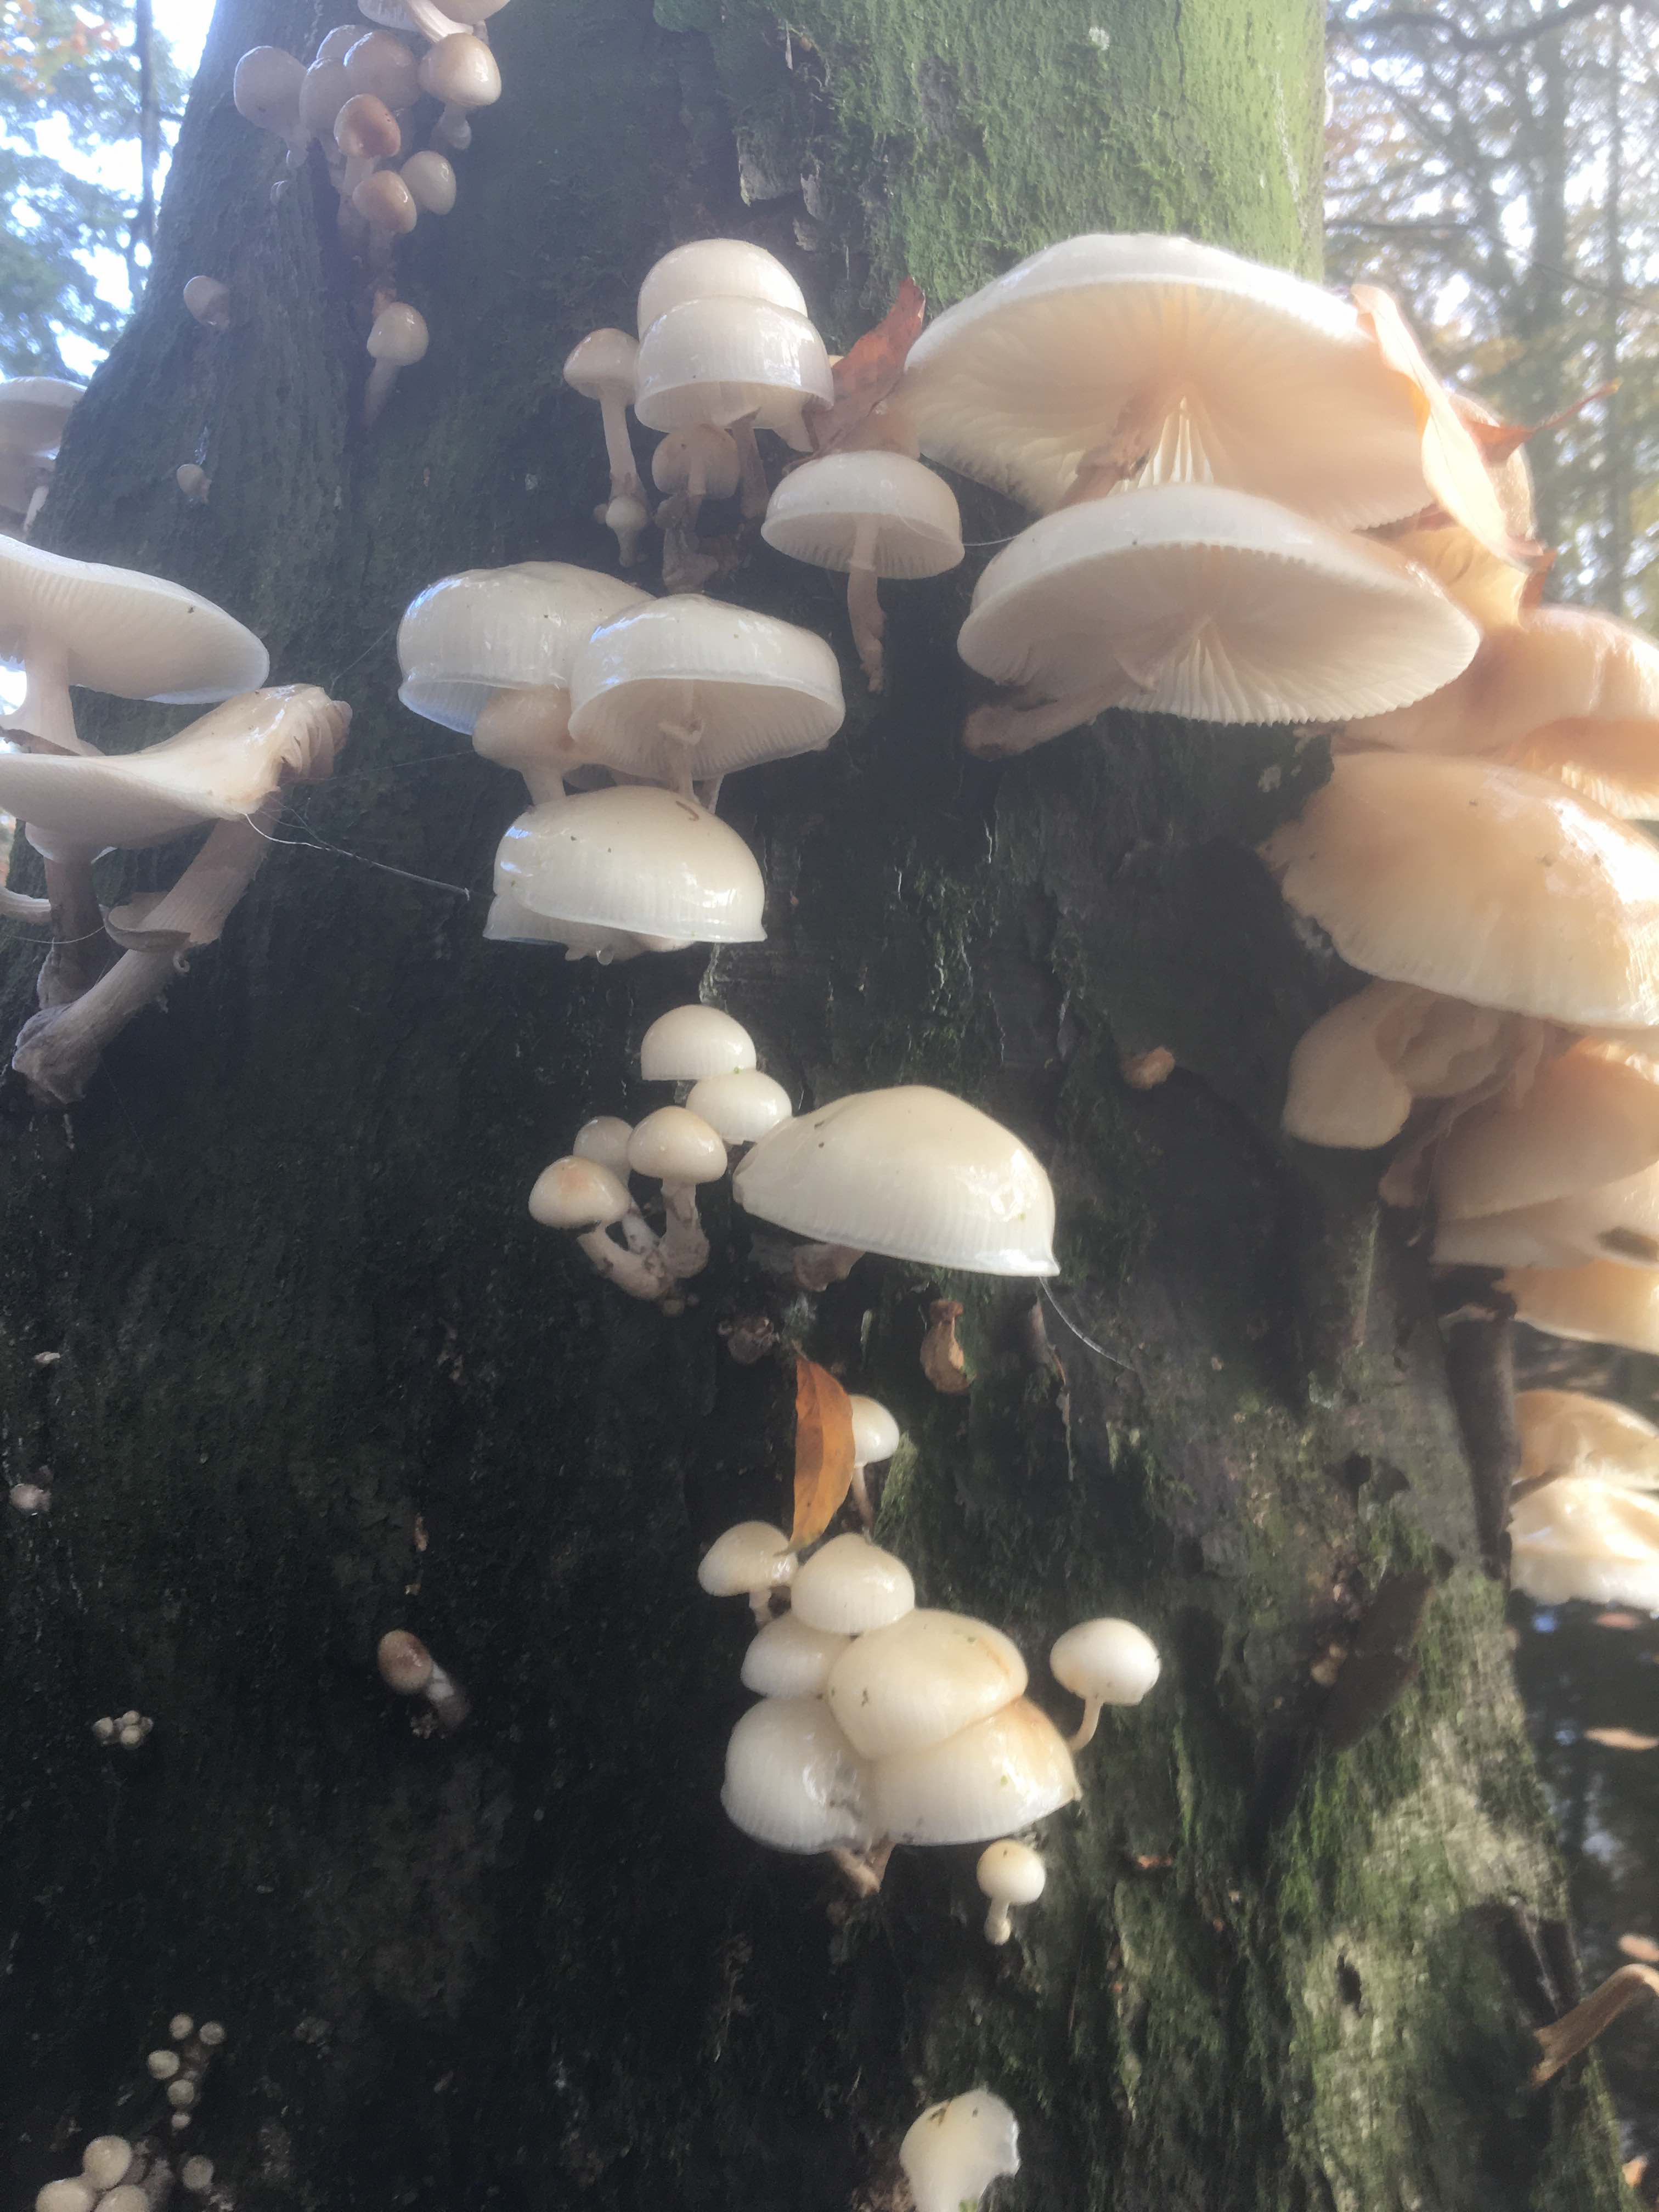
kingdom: Fungi
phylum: Basidiomycota
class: Agaricomycetes
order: Agaricales
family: Physalacriaceae
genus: Mucidula
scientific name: Mucidula mucida
